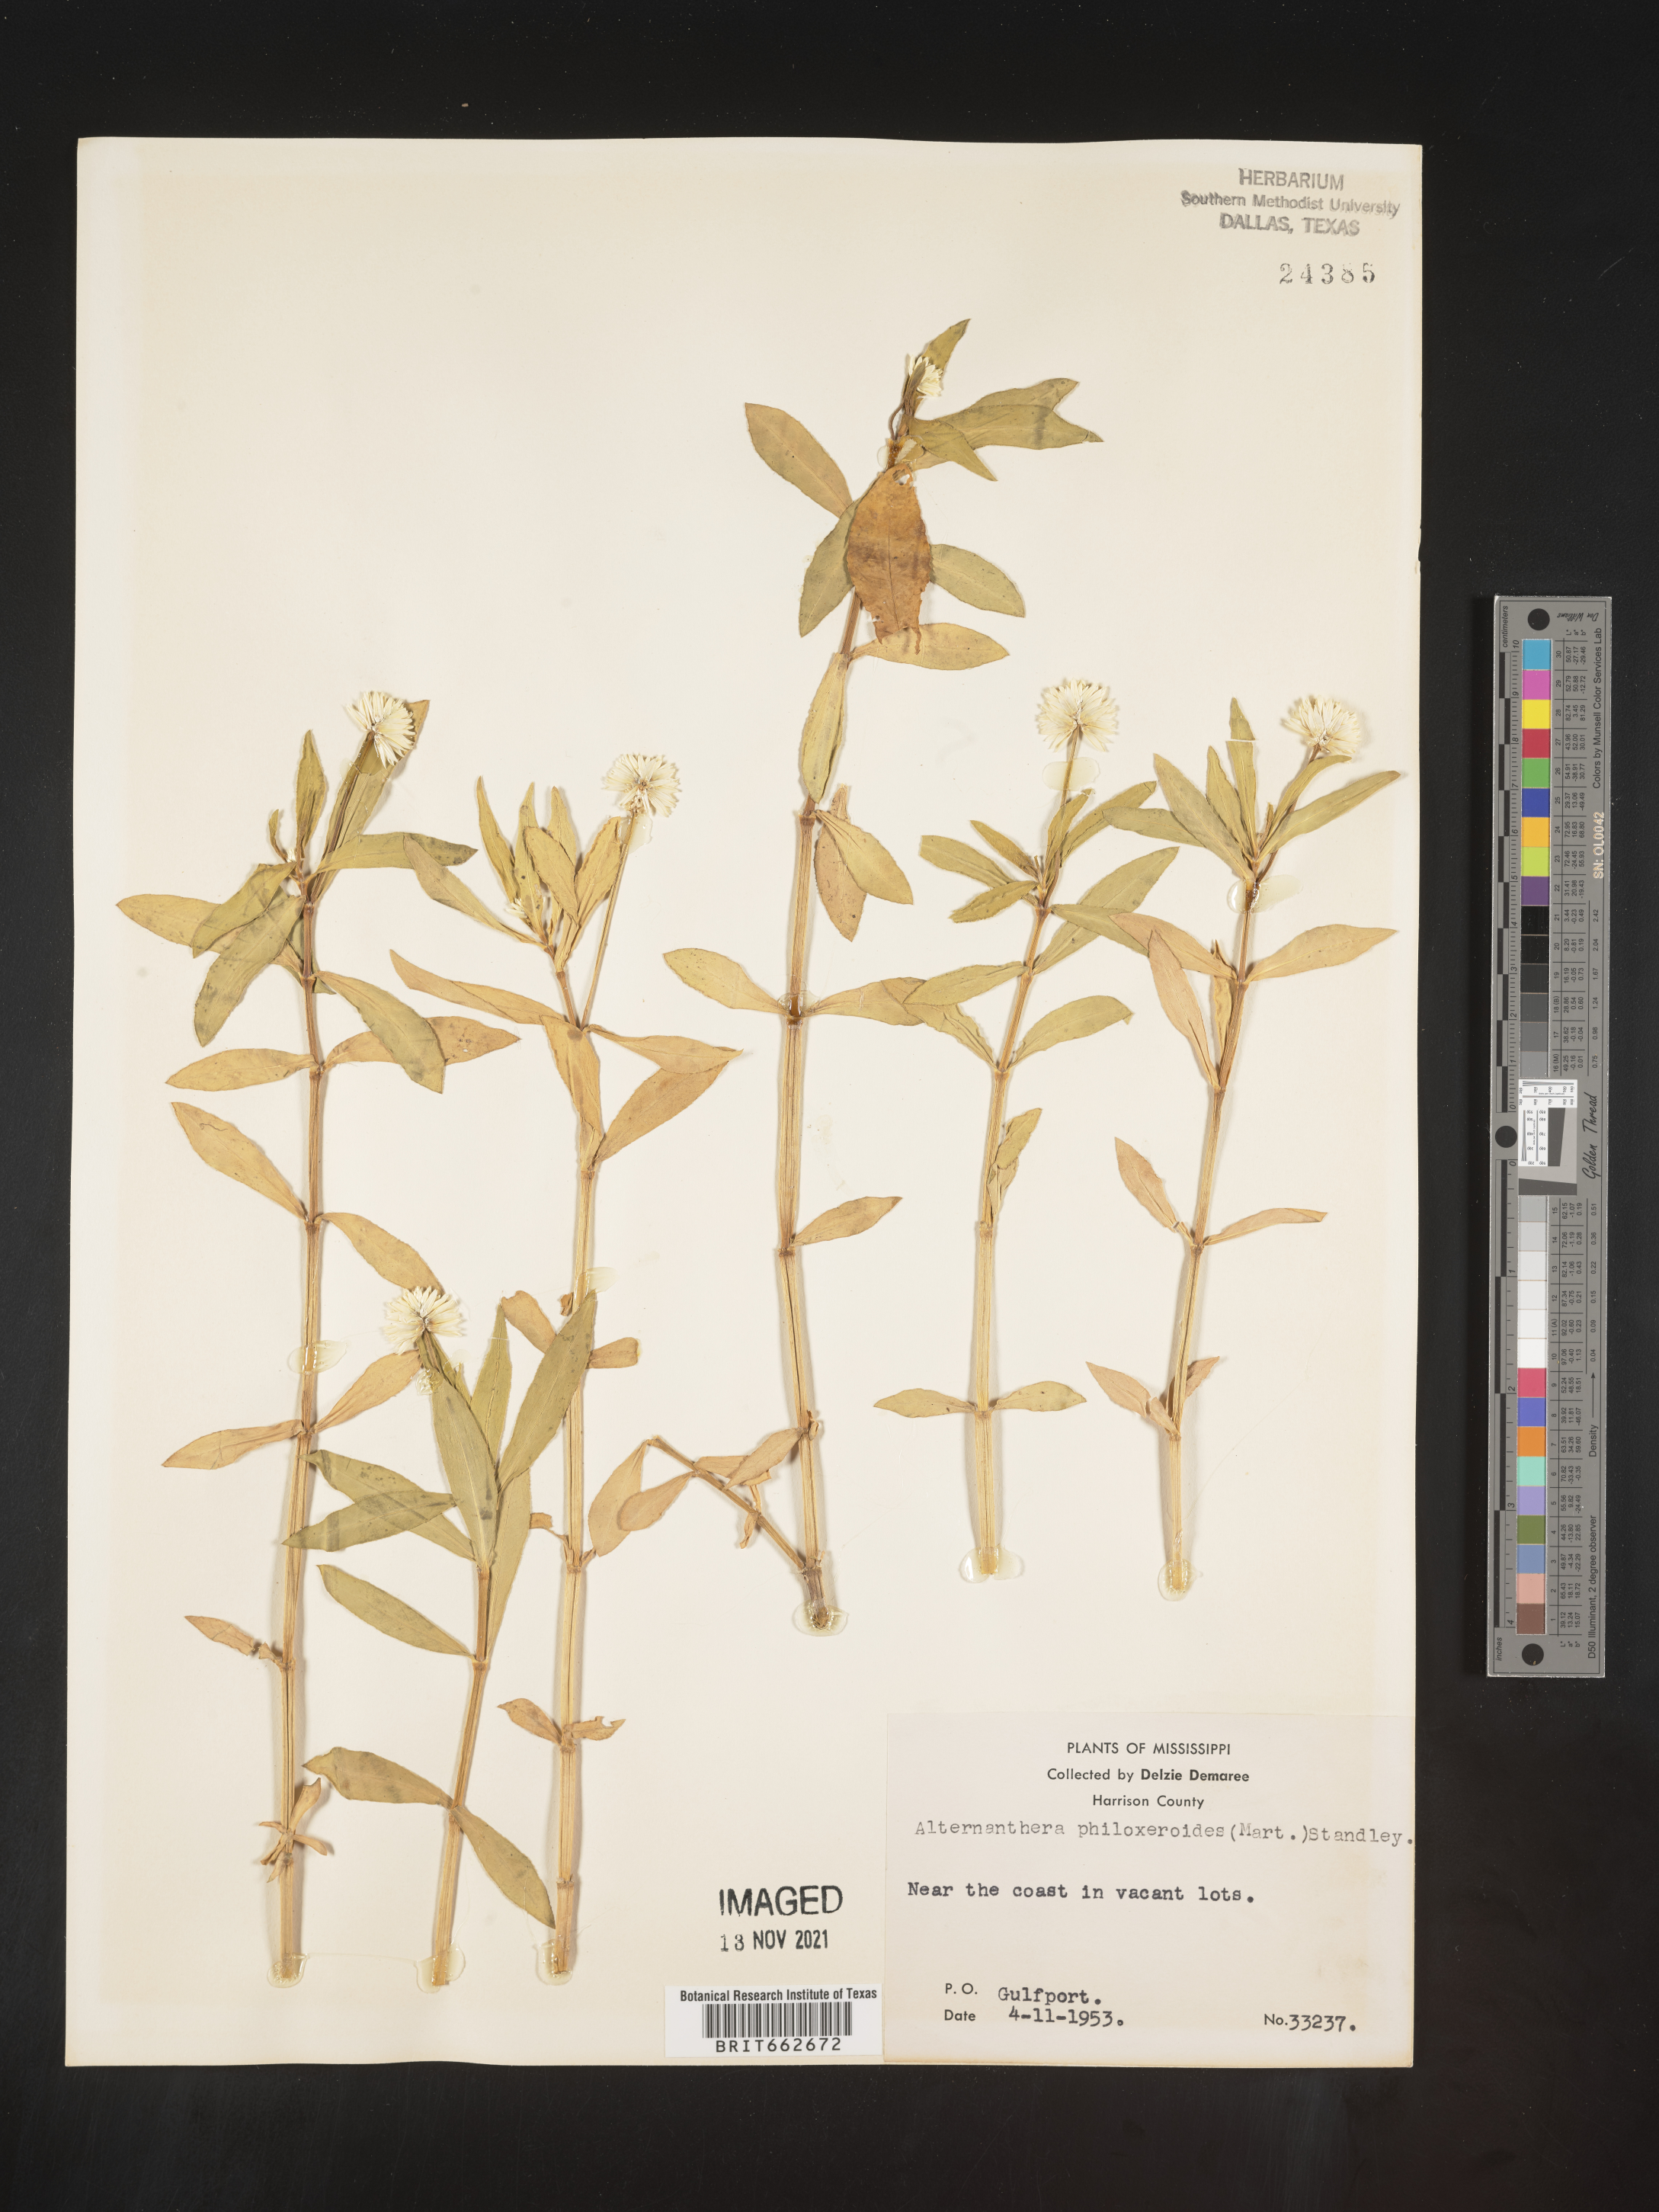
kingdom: Plantae
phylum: Tracheophyta
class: Magnoliopsida
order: Caryophyllales
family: Amaranthaceae
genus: Alternanthera
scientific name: Alternanthera philoxeroides
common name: Alligatorweed
